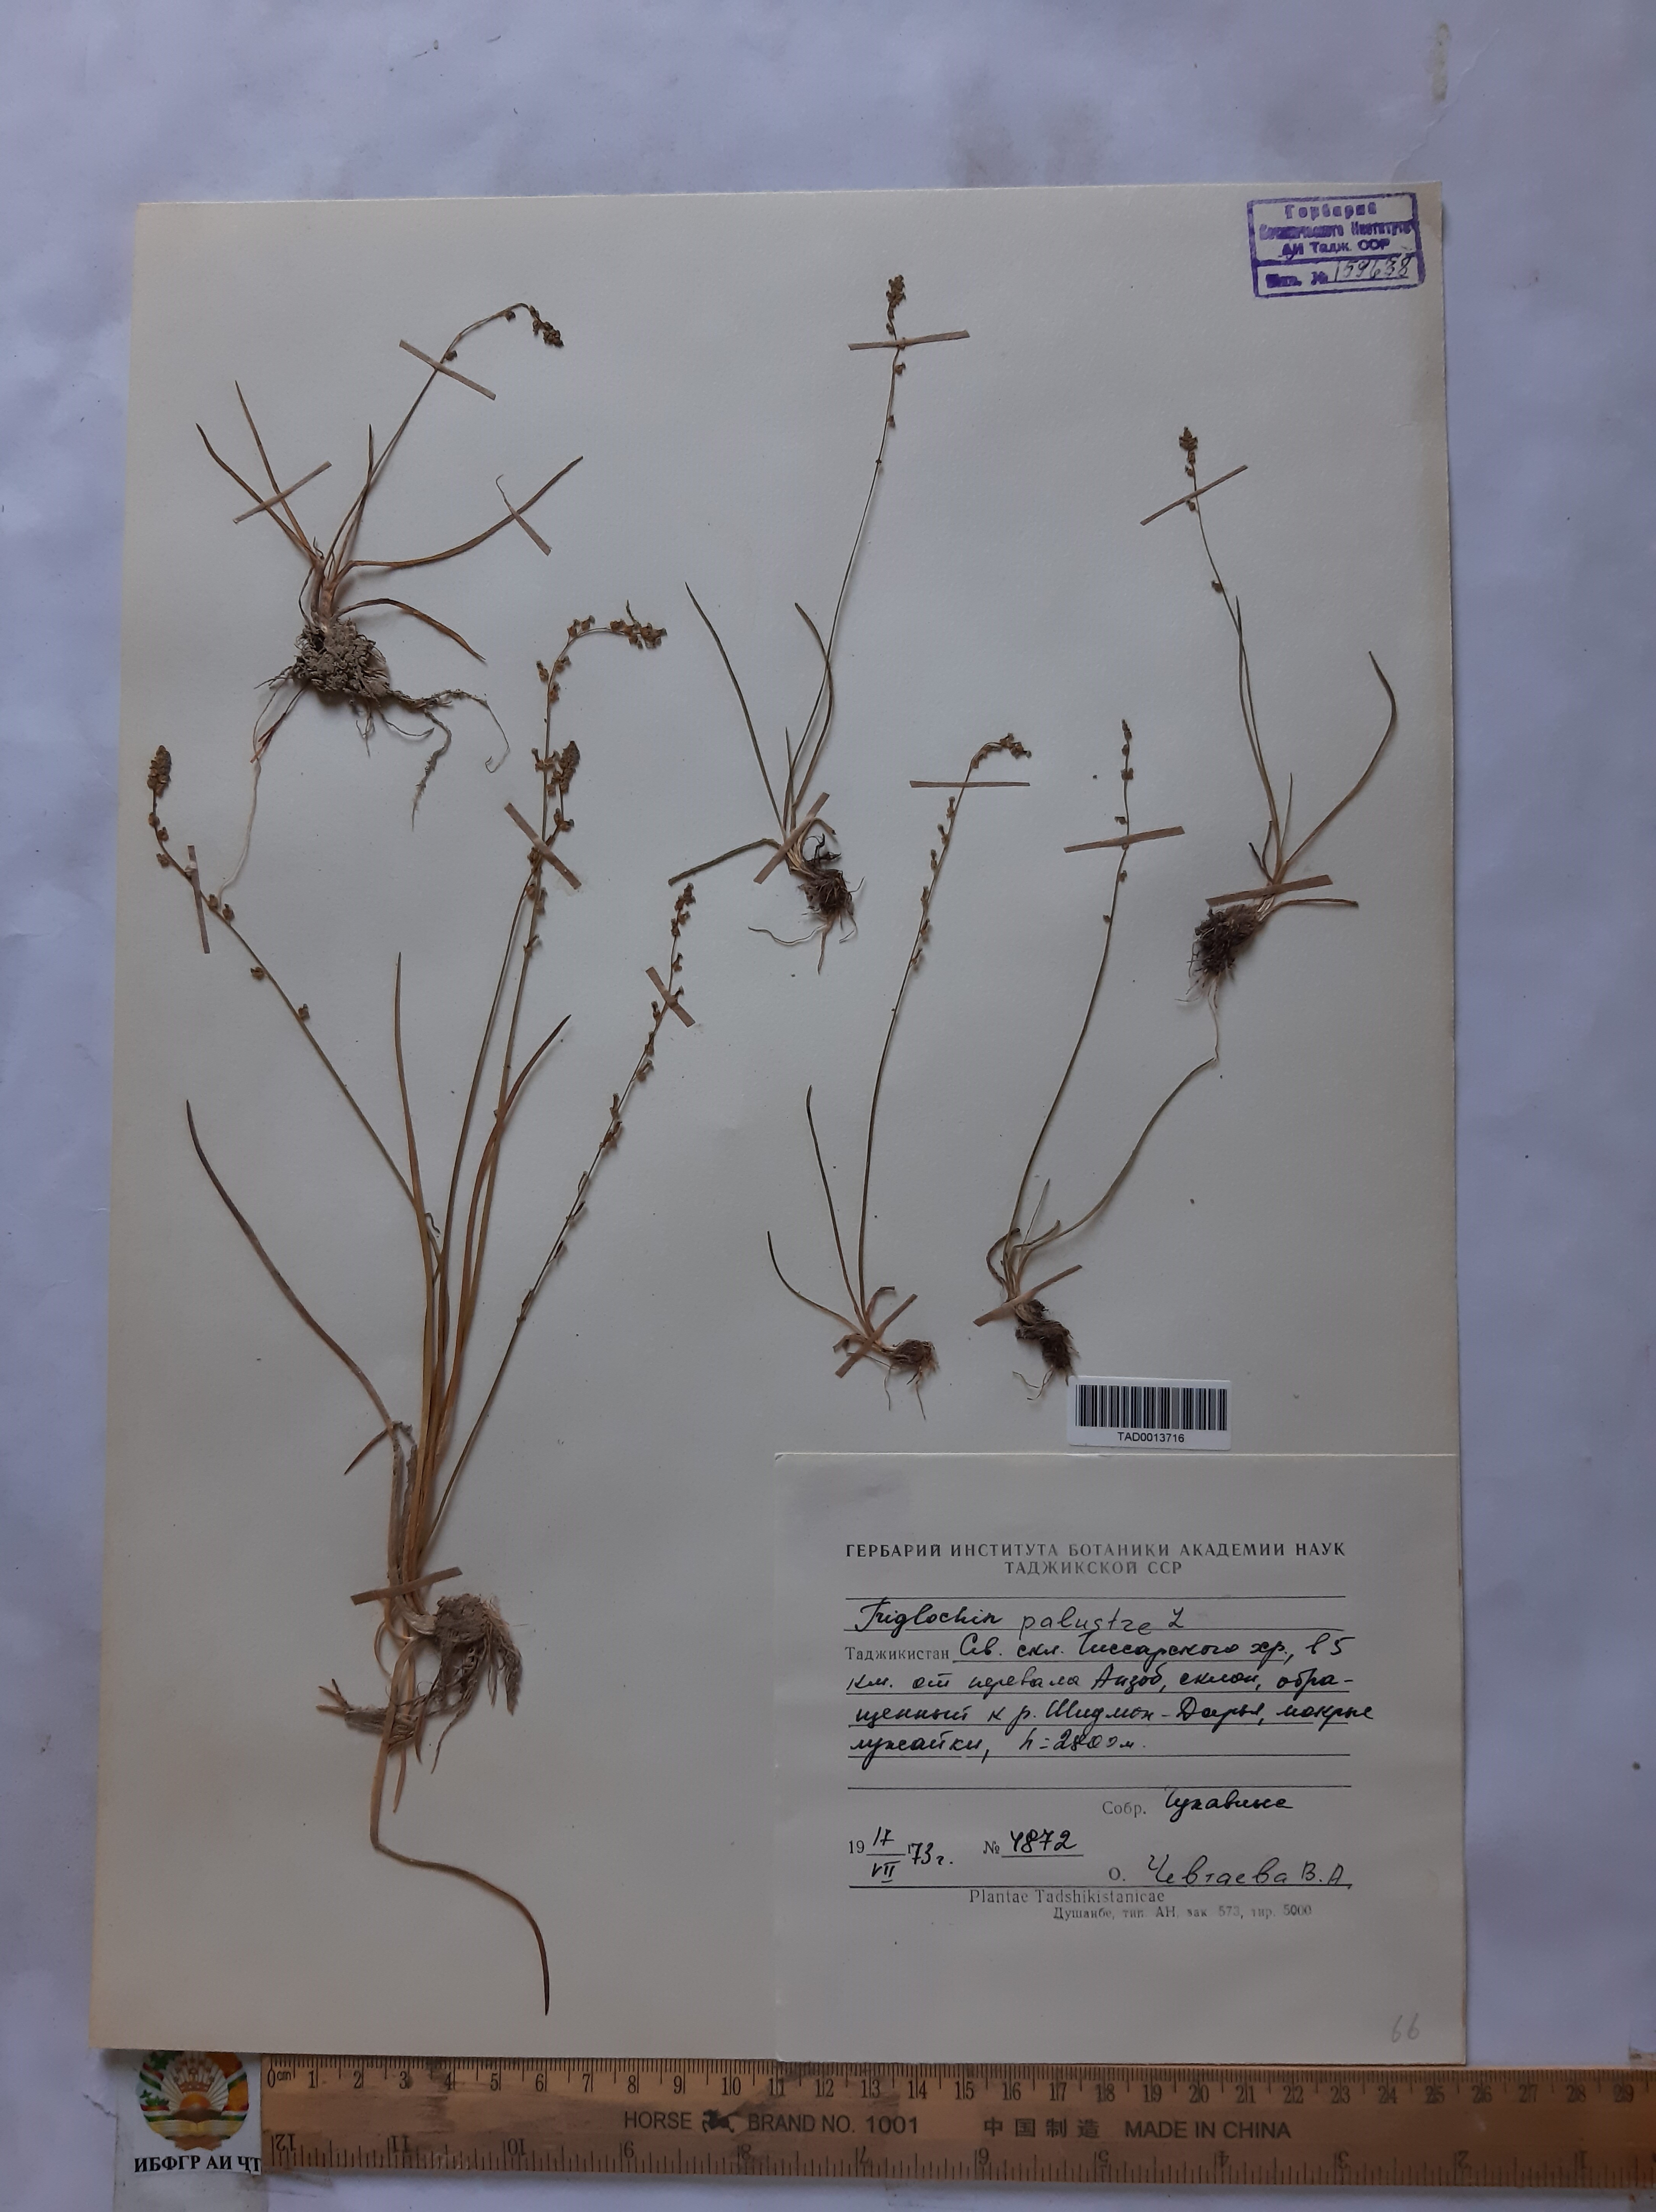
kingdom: Plantae
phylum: Tracheophyta
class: Liliopsida
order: Alismatales
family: Juncaginaceae
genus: Triglochin
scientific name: Triglochin palustris
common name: Marsh arrowgrass
